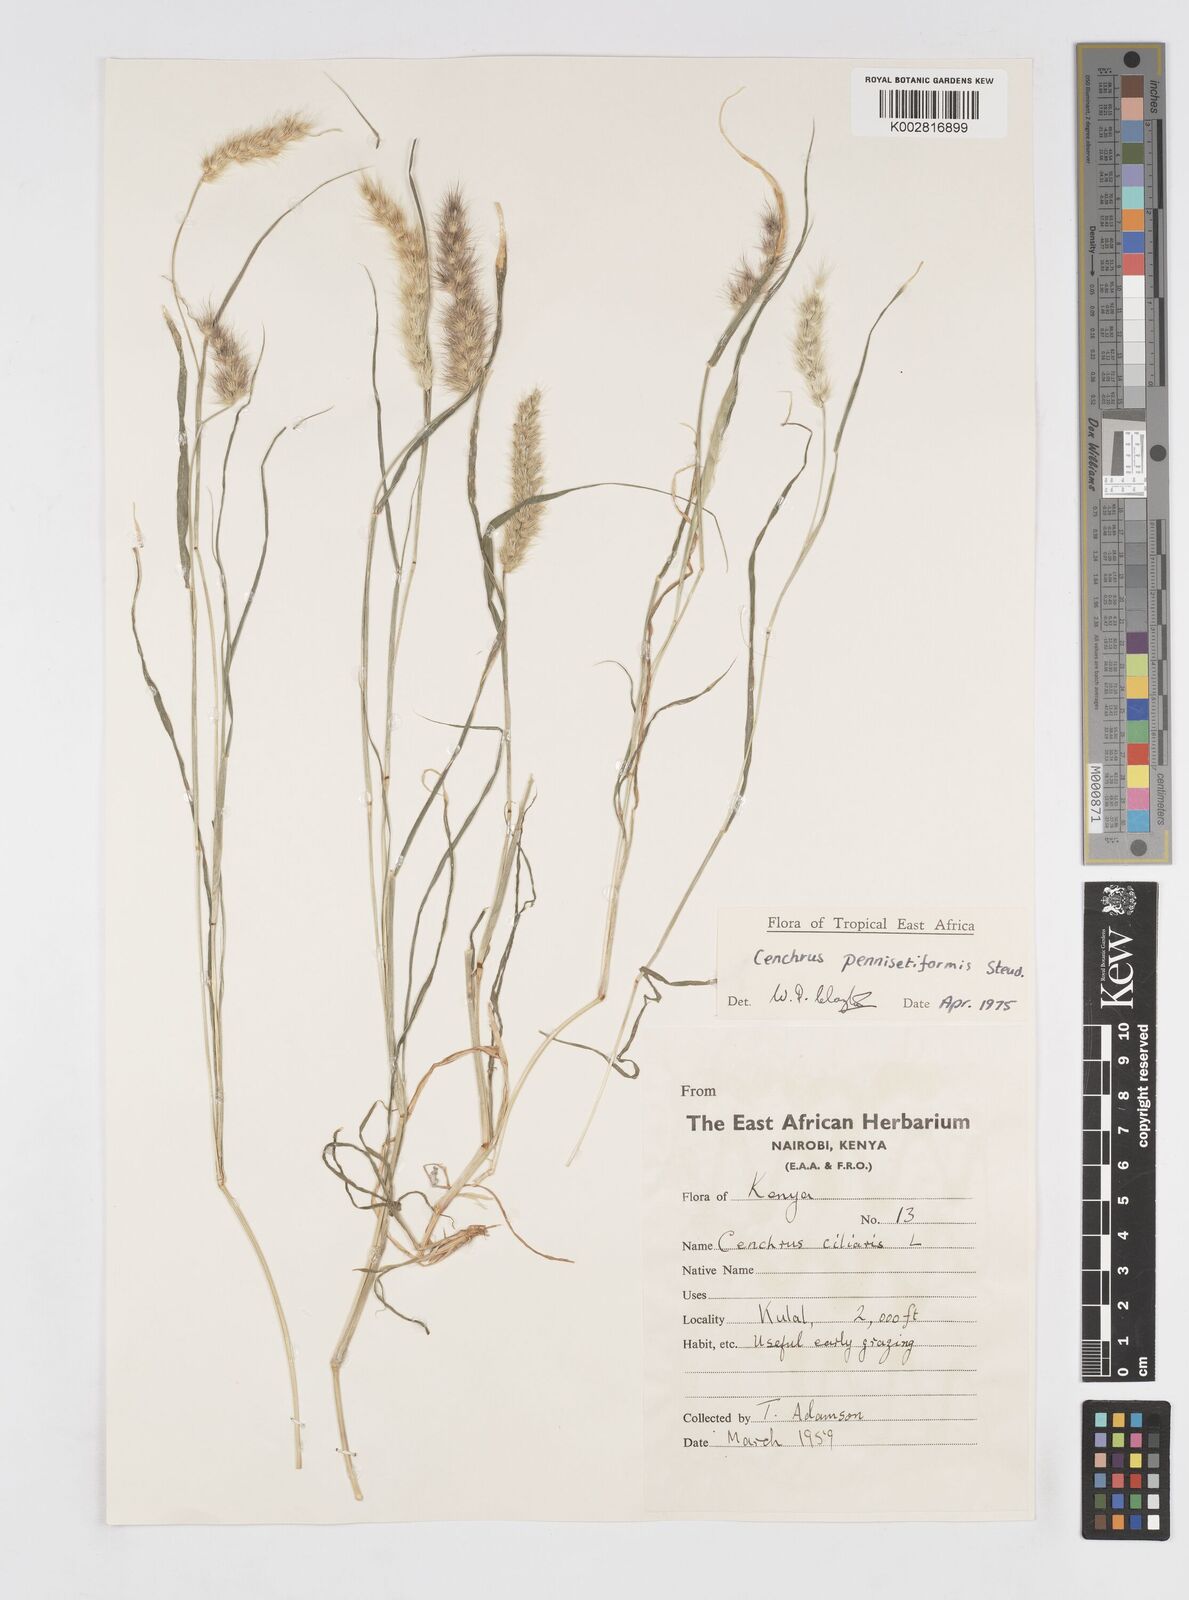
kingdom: Plantae
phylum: Tracheophyta
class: Liliopsida
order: Poales
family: Poaceae
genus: Cenchrus
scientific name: Cenchrus pennisetiformis
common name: Cloncurry
